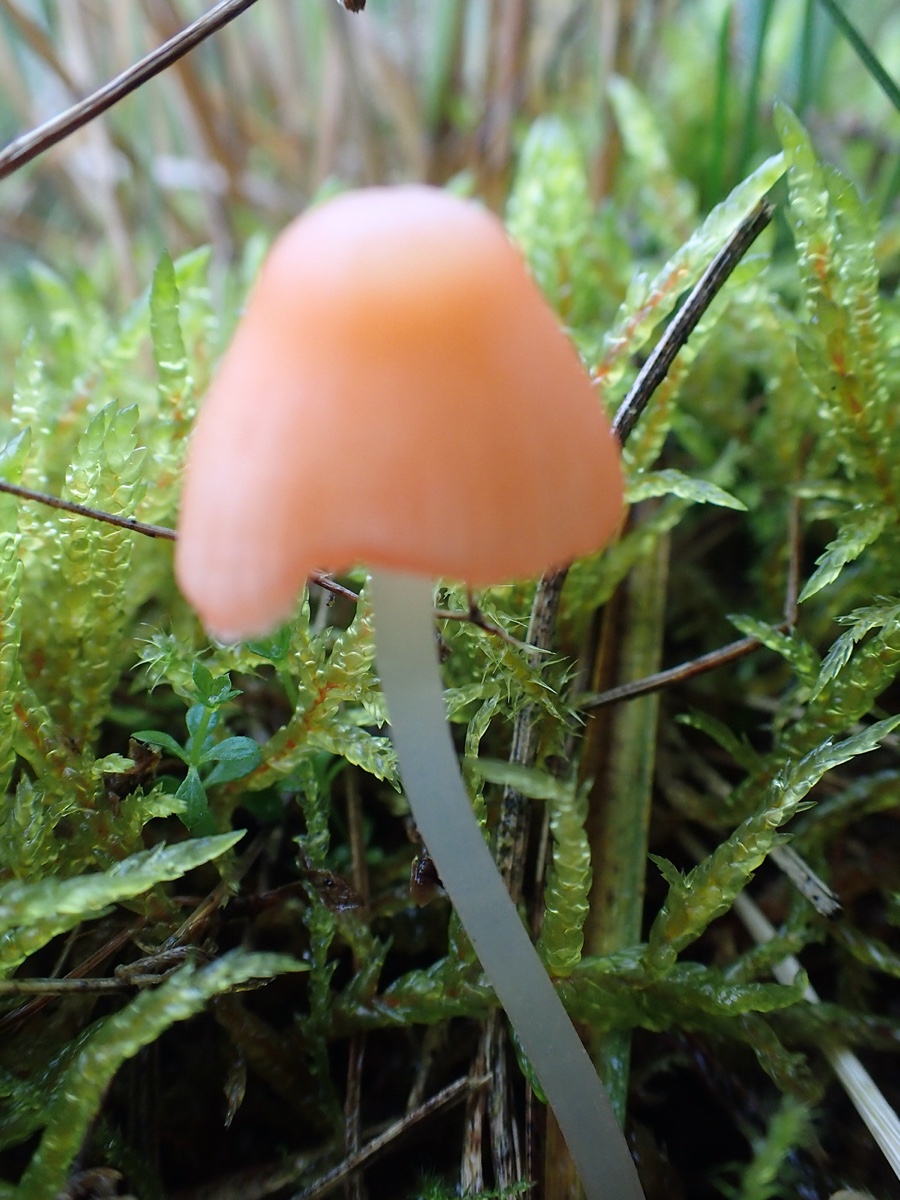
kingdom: Fungi
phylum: Basidiomycota
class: Agaricomycetes
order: Agaricales
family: Mycenaceae
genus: Atheniella
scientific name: Atheniella adonis
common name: rønnerød huesvamp
